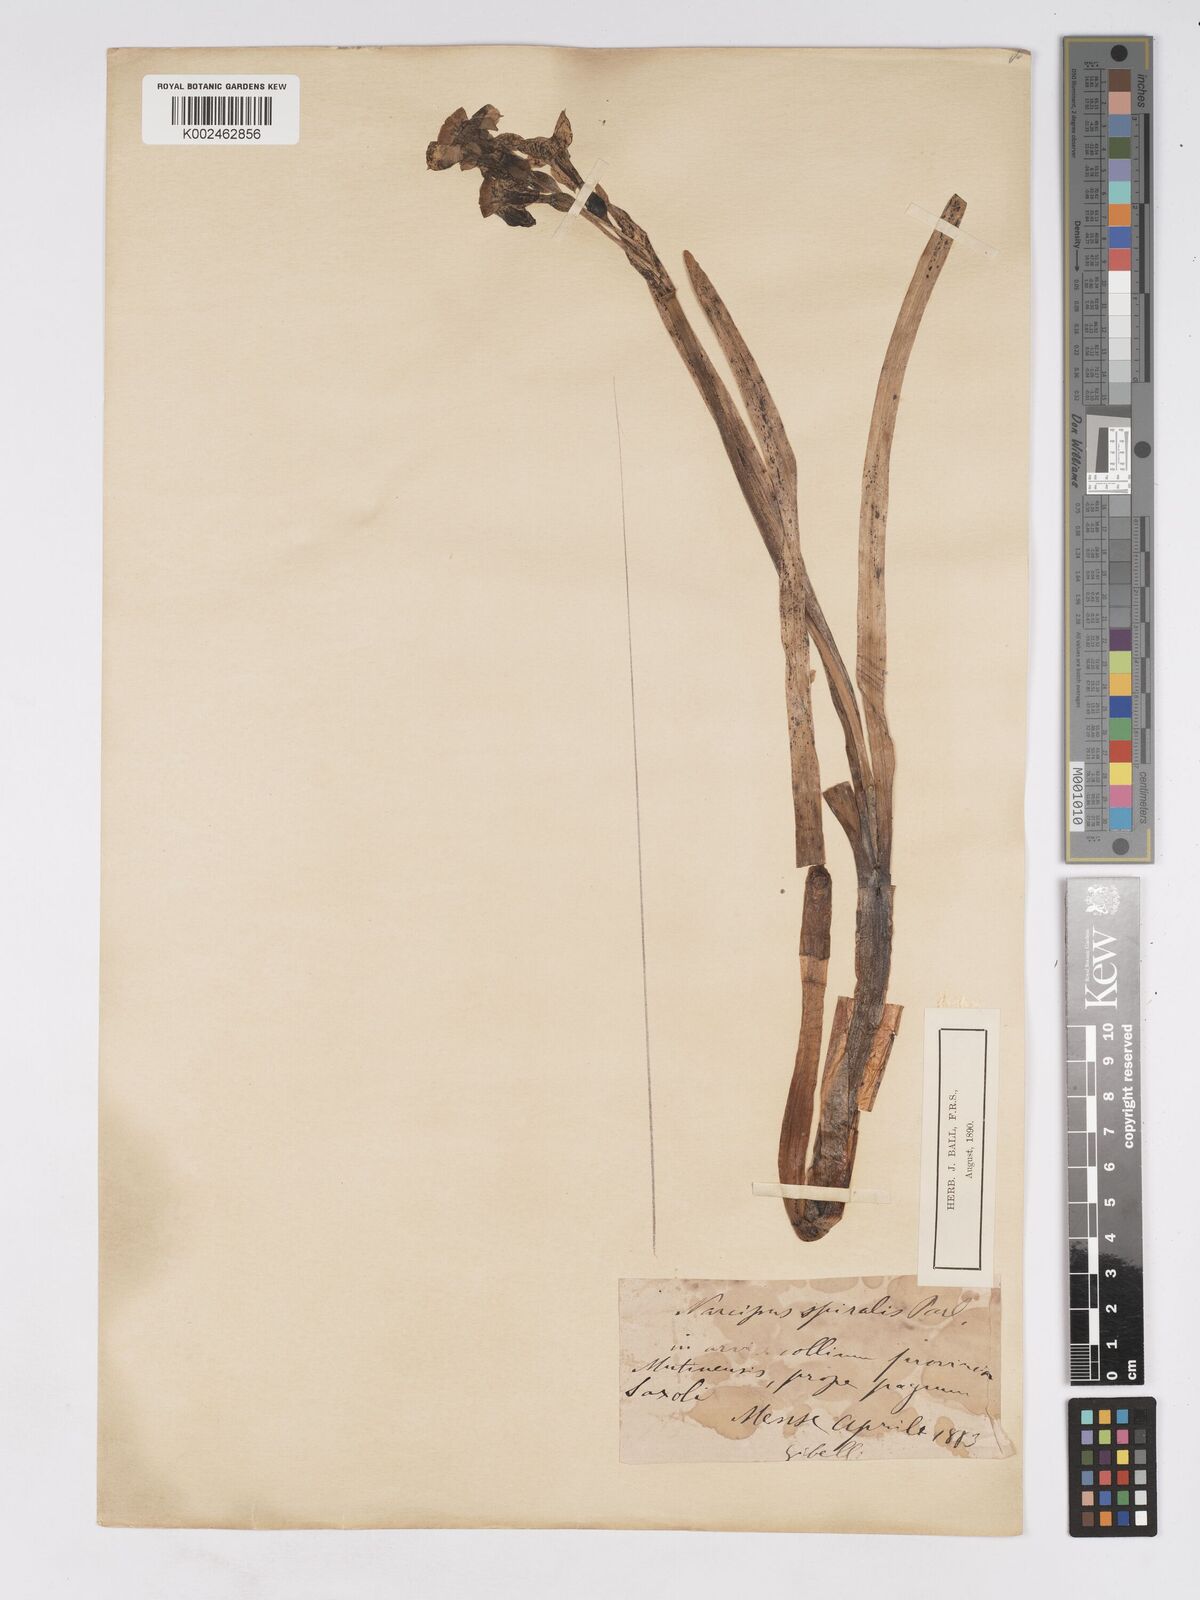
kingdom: Plantae
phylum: Tracheophyta
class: Liliopsida
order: Asparagales
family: Amaryllidaceae
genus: Narcissus
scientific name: Narcissus tazetta
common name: Bunch-flowered daffodil
